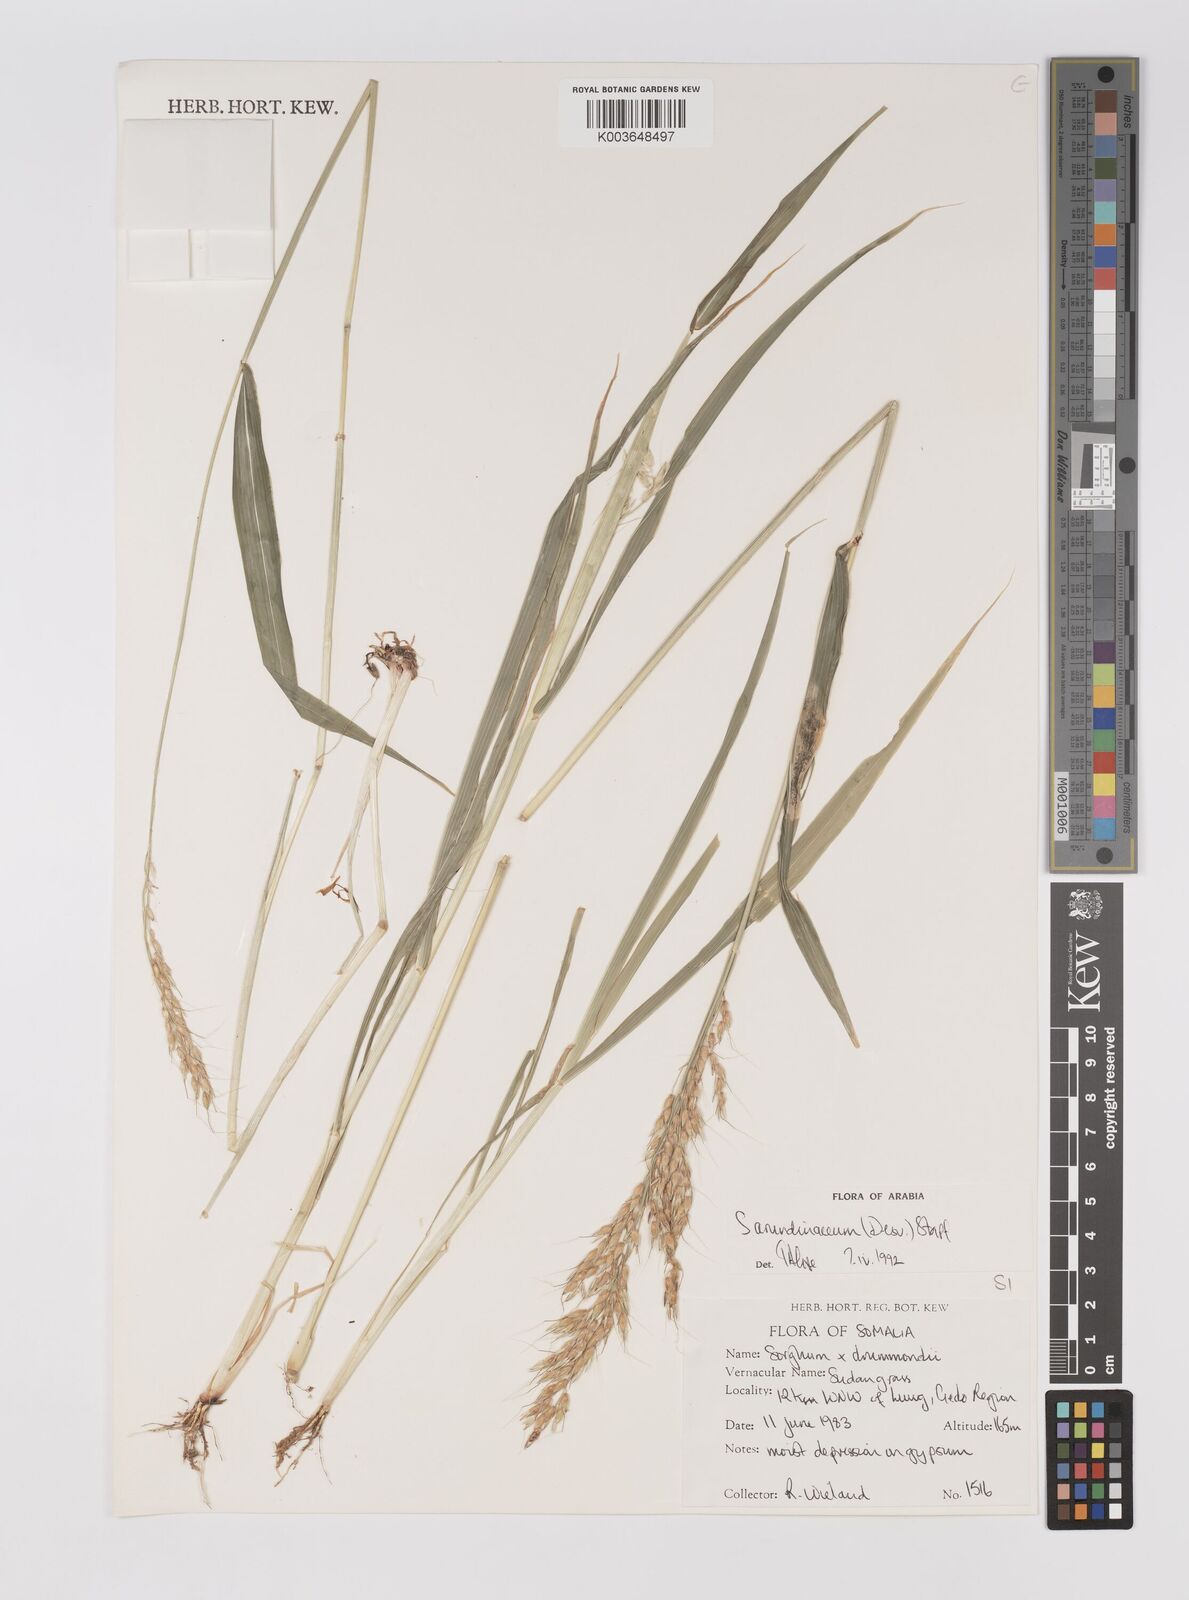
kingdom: Plantae
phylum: Tracheophyta
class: Liliopsida
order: Poales
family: Poaceae
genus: Sorghum
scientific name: Sorghum arundinaceum
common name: Sorghum
